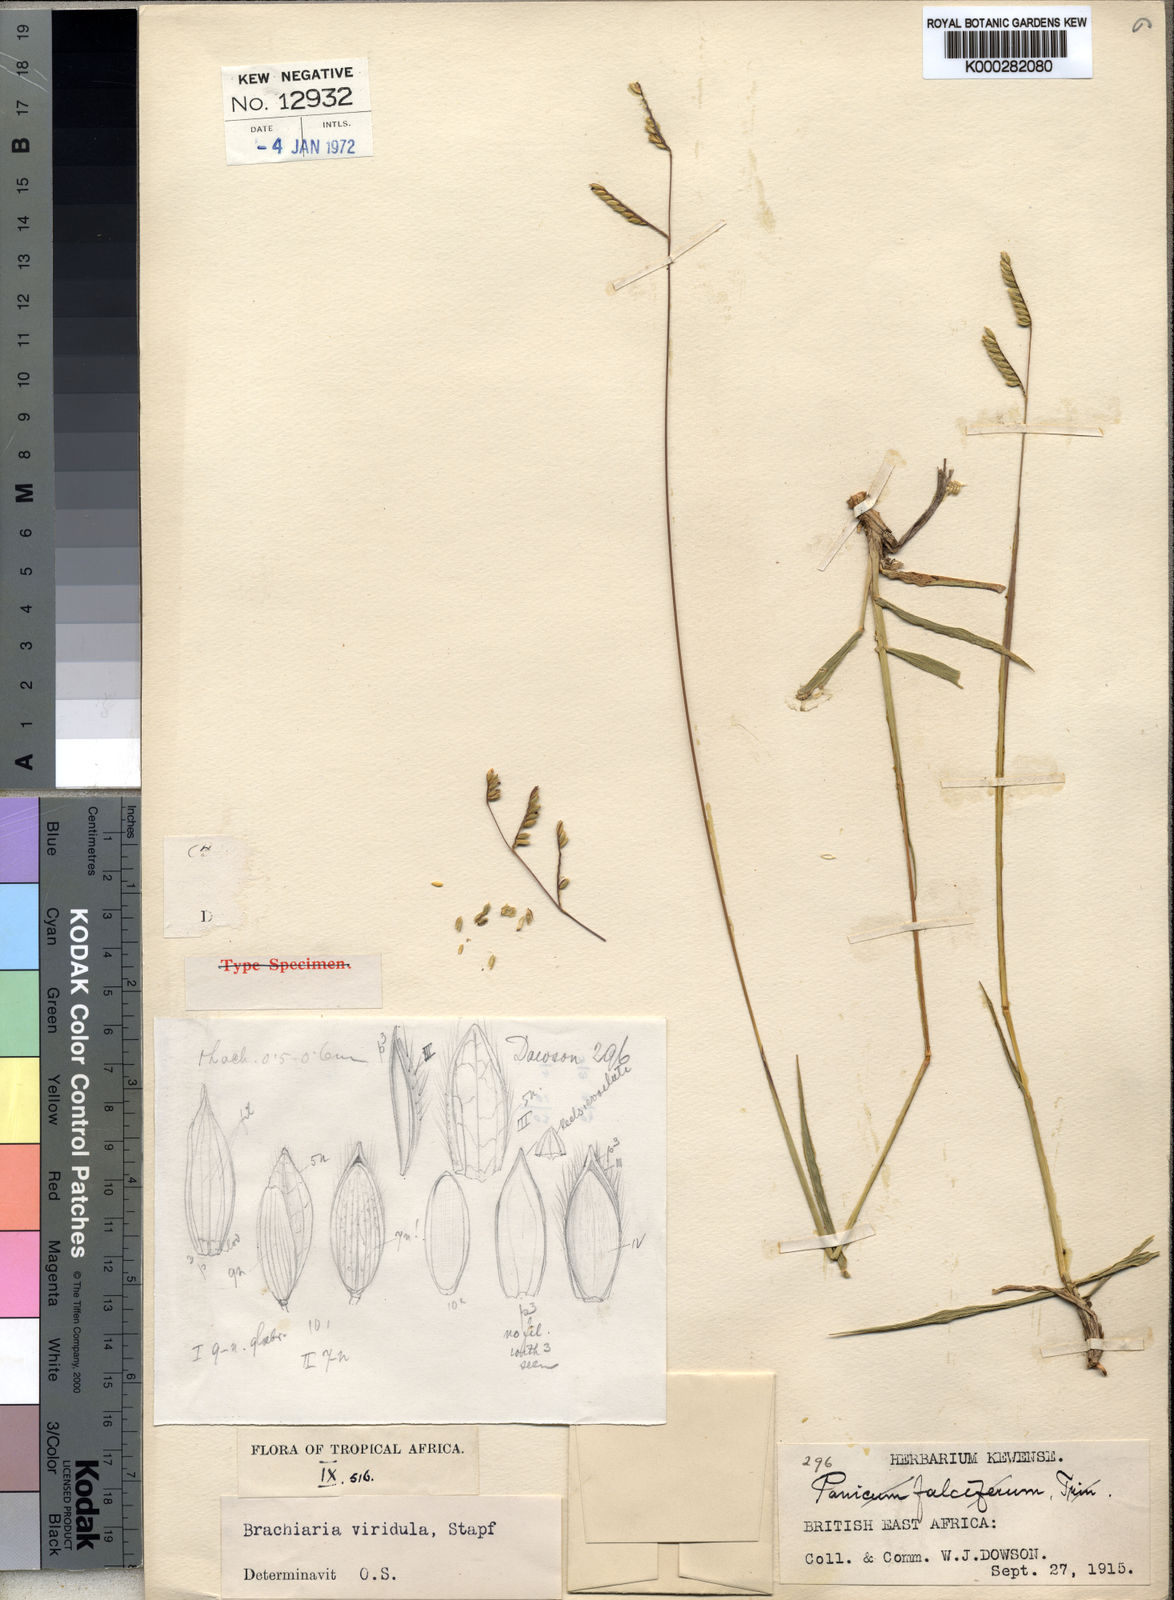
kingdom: Plantae
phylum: Tracheophyta
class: Liliopsida
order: Poales
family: Poaceae
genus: Urochloa
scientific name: Urochloa bovonei
